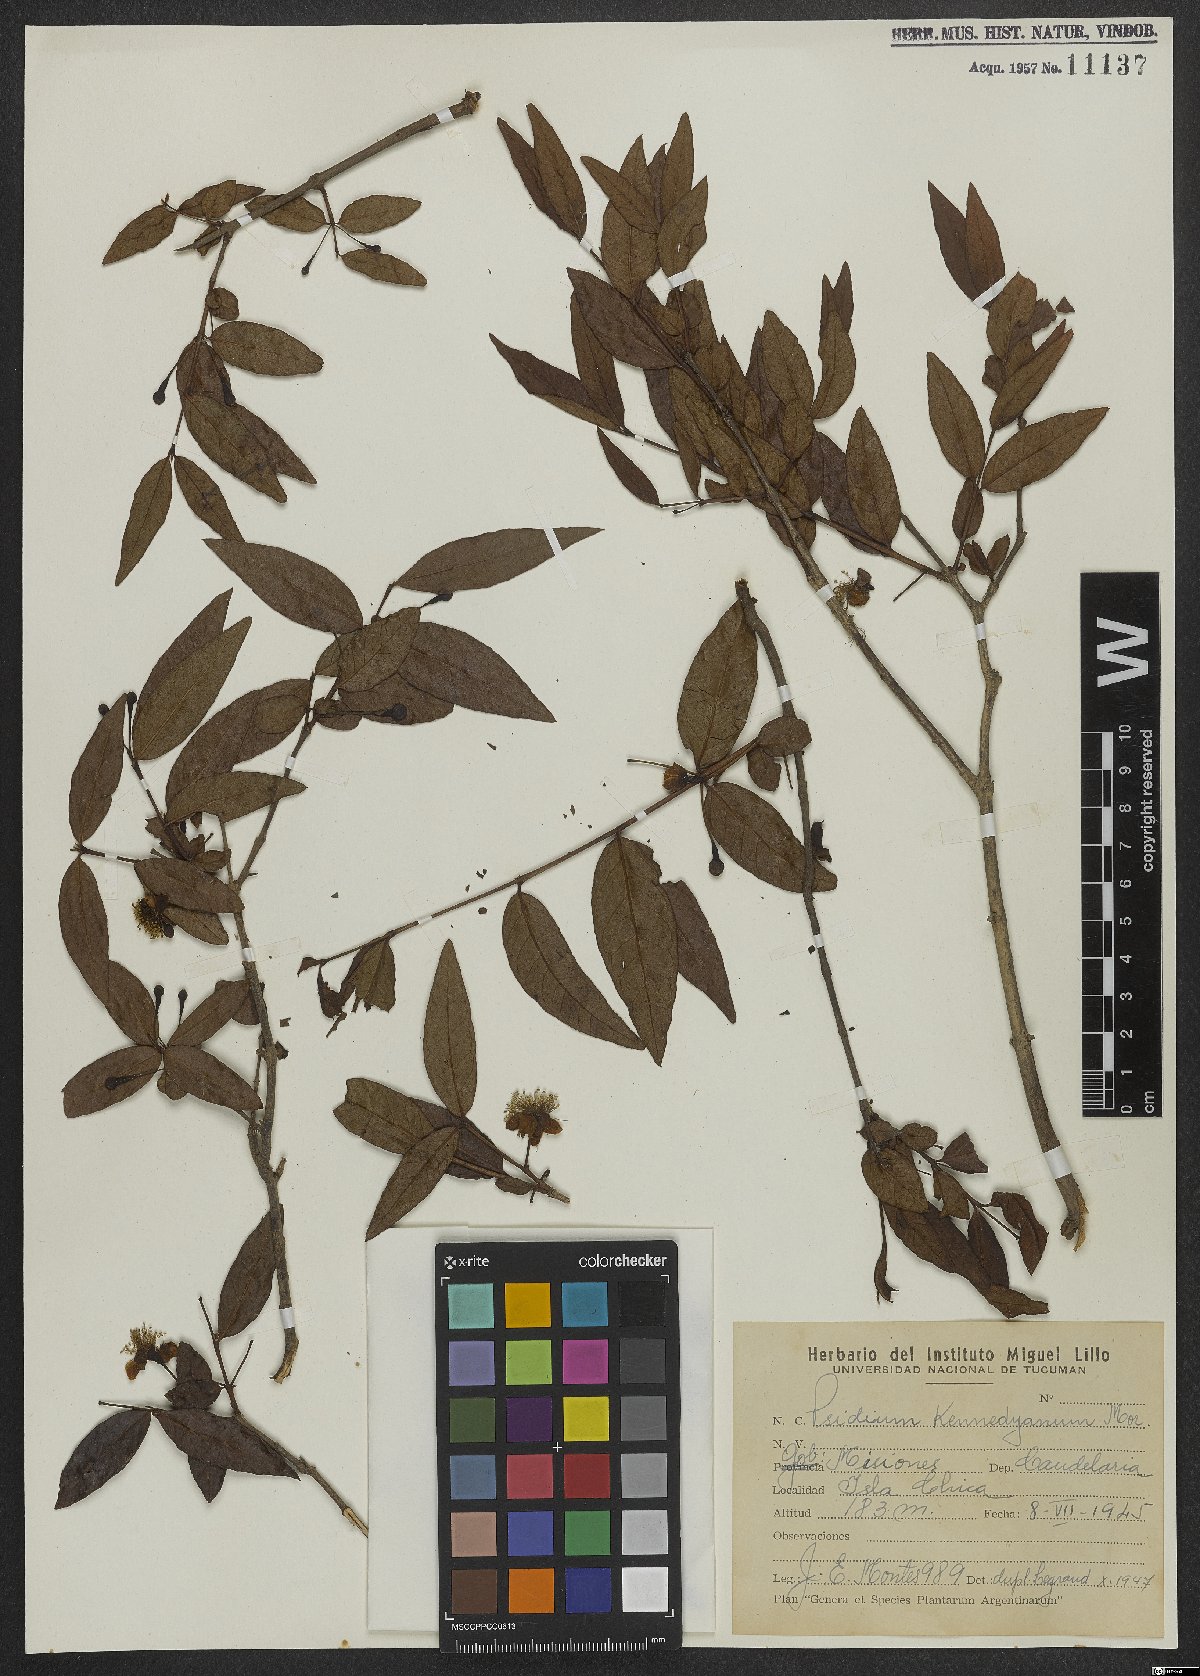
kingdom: Plantae
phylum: Tracheophyta
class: Magnoliopsida
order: Myrtales
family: Myrtaceae
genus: Psidium
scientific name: Psidium kennedyanum
